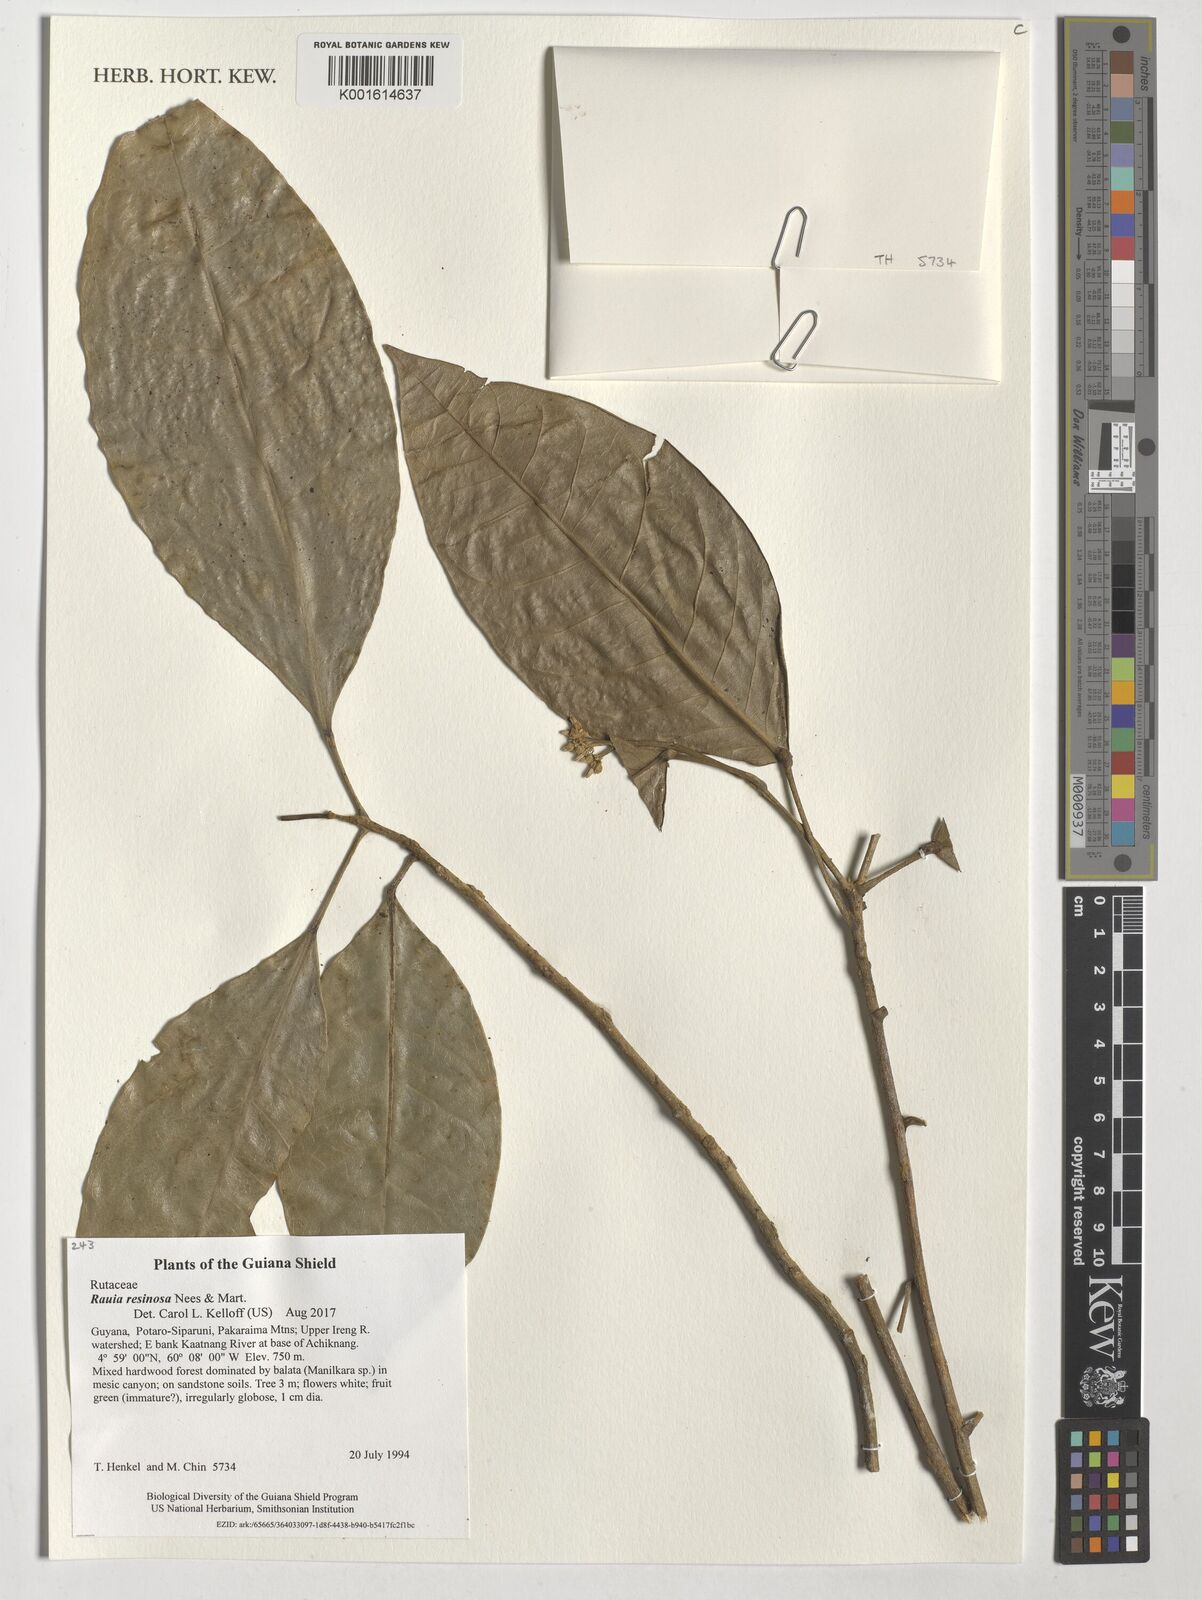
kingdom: Plantae
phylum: Tracheophyta
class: Magnoliopsida
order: Sapindales
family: Rutaceae
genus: Rauia
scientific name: Rauia resinosa
